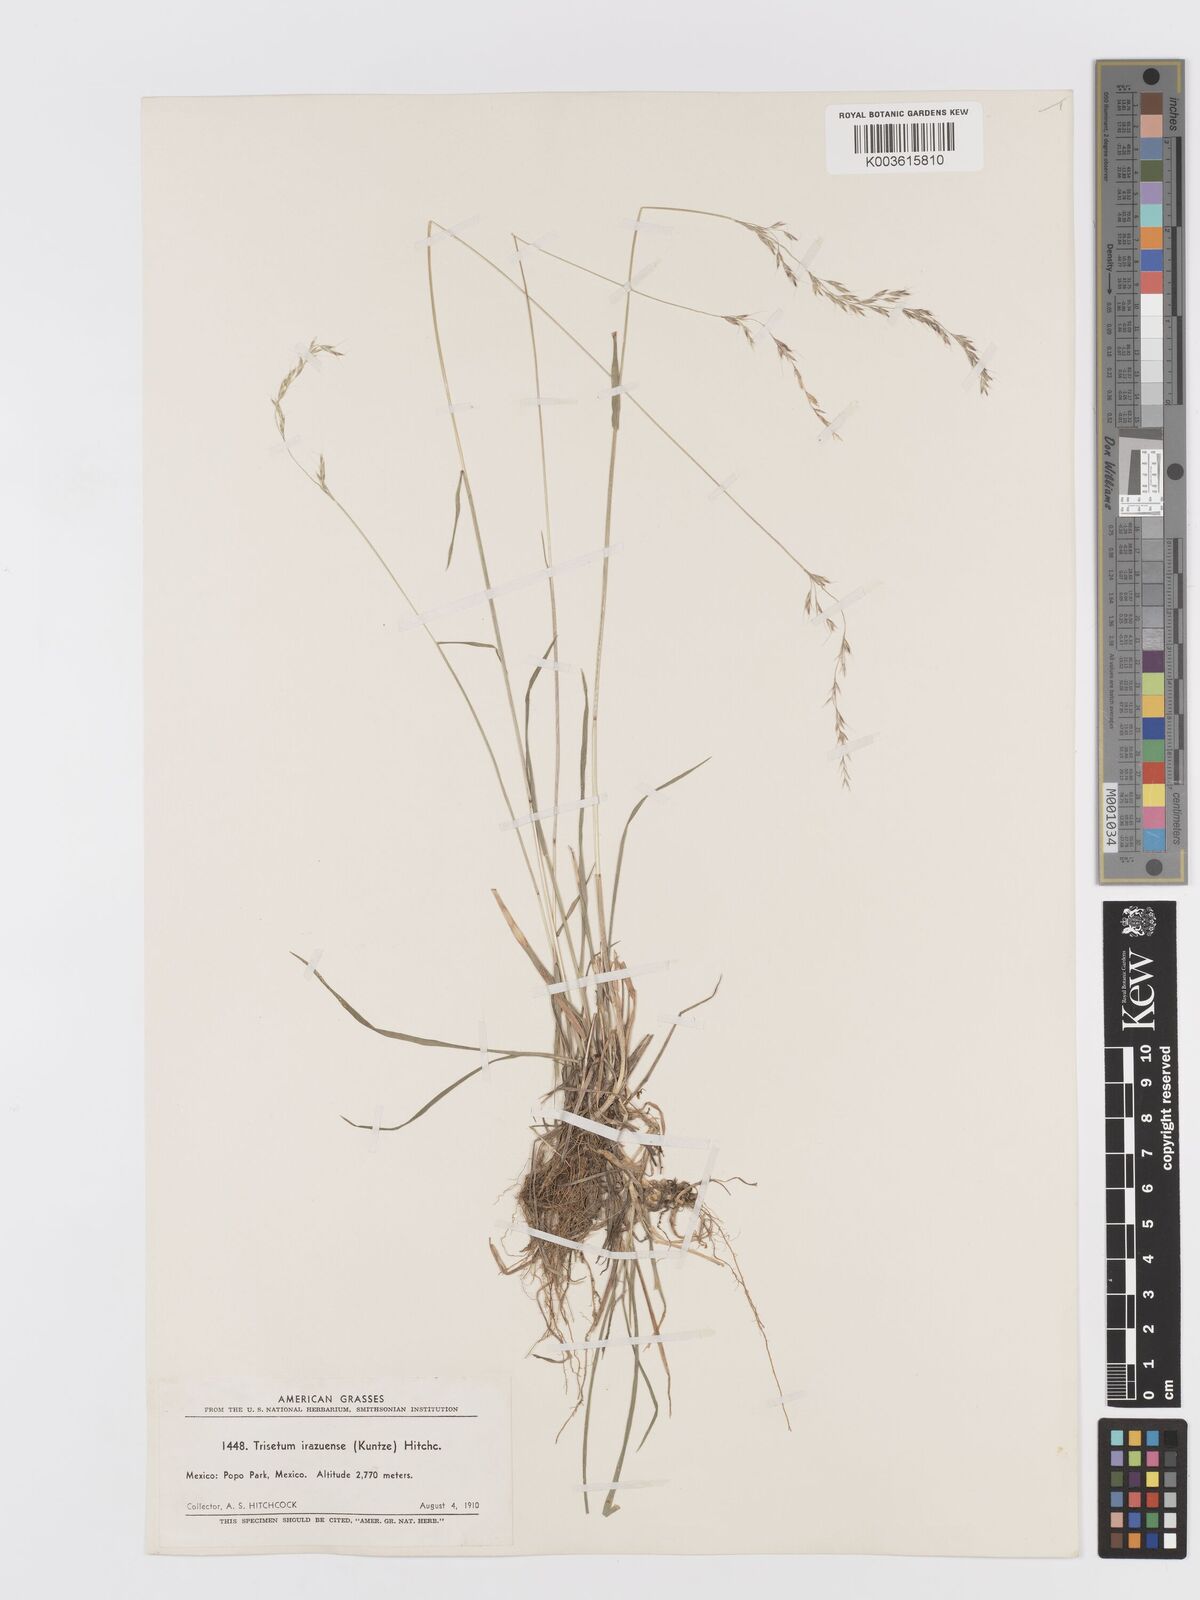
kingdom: Plantae
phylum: Tracheophyta
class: Liliopsida
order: Poales
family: Poaceae
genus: Peyritschia
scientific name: Peyritschia irazuensis
